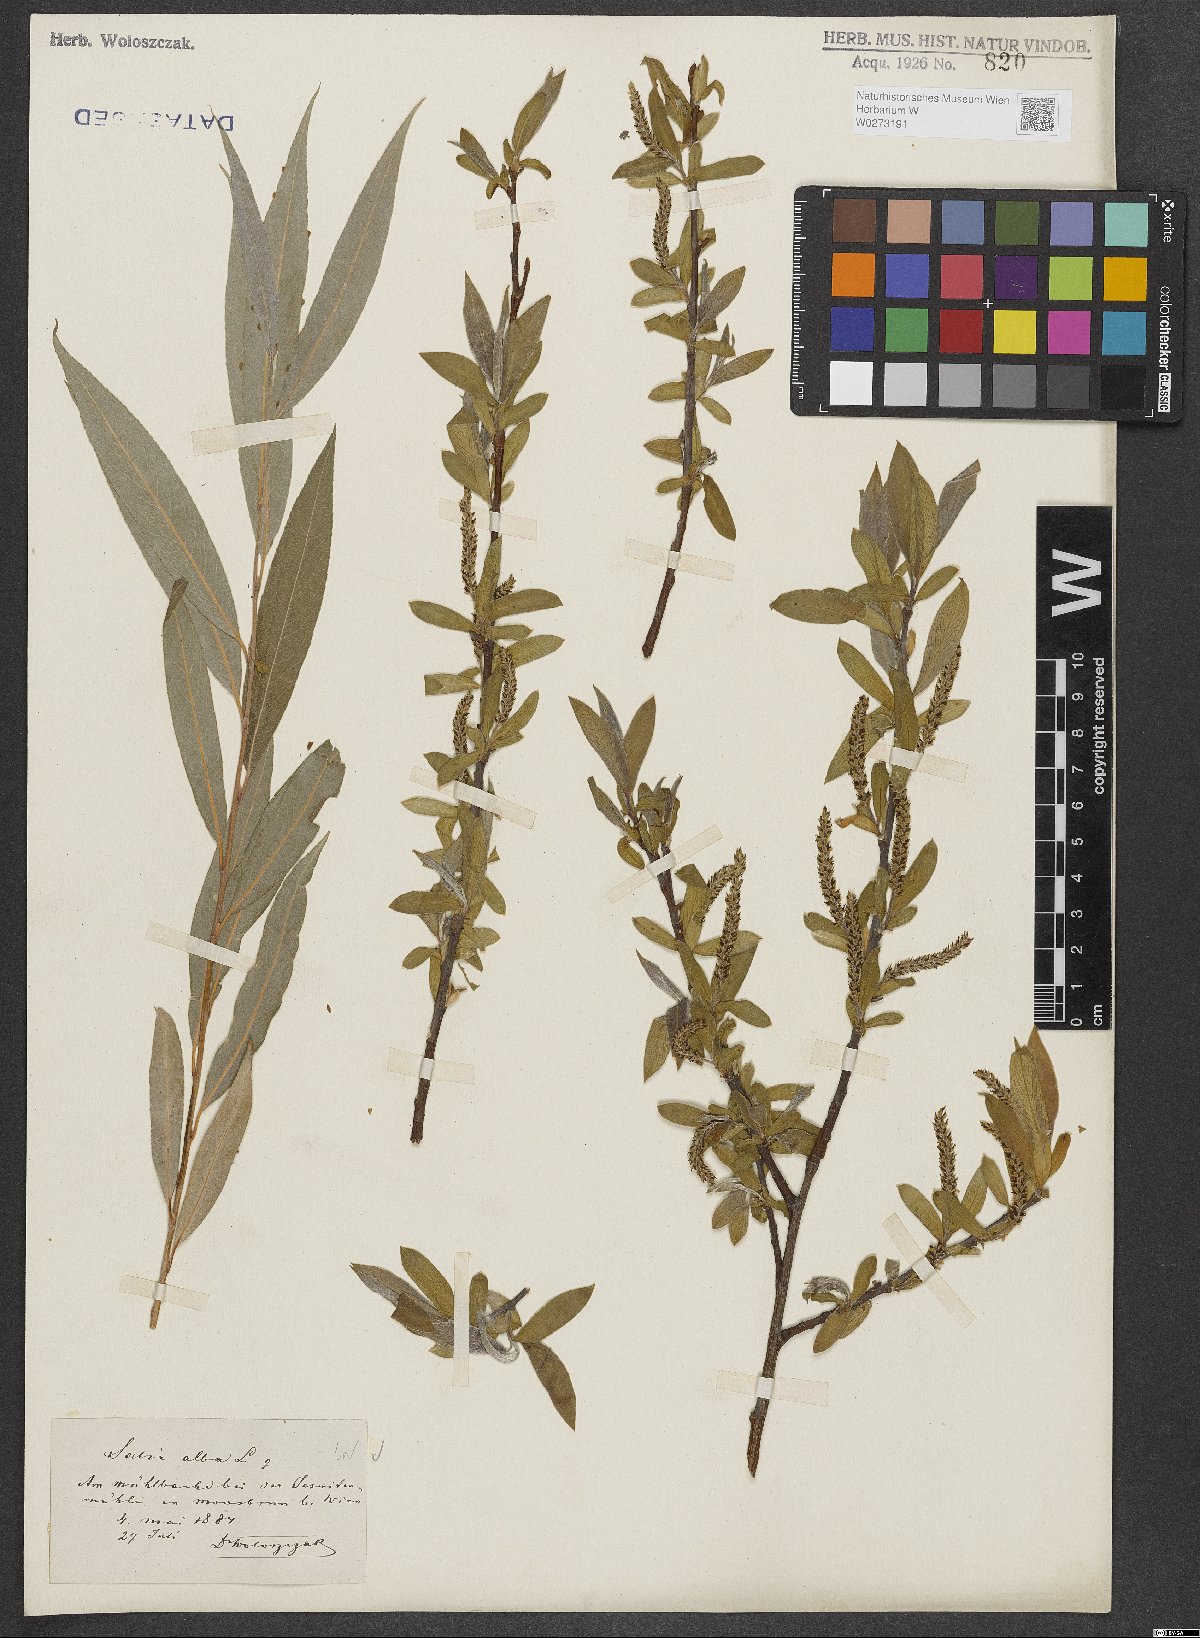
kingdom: Plantae
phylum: Tracheophyta
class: Magnoliopsida
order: Malpighiales
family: Salicaceae
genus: Salix
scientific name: Salix alba
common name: White willow
